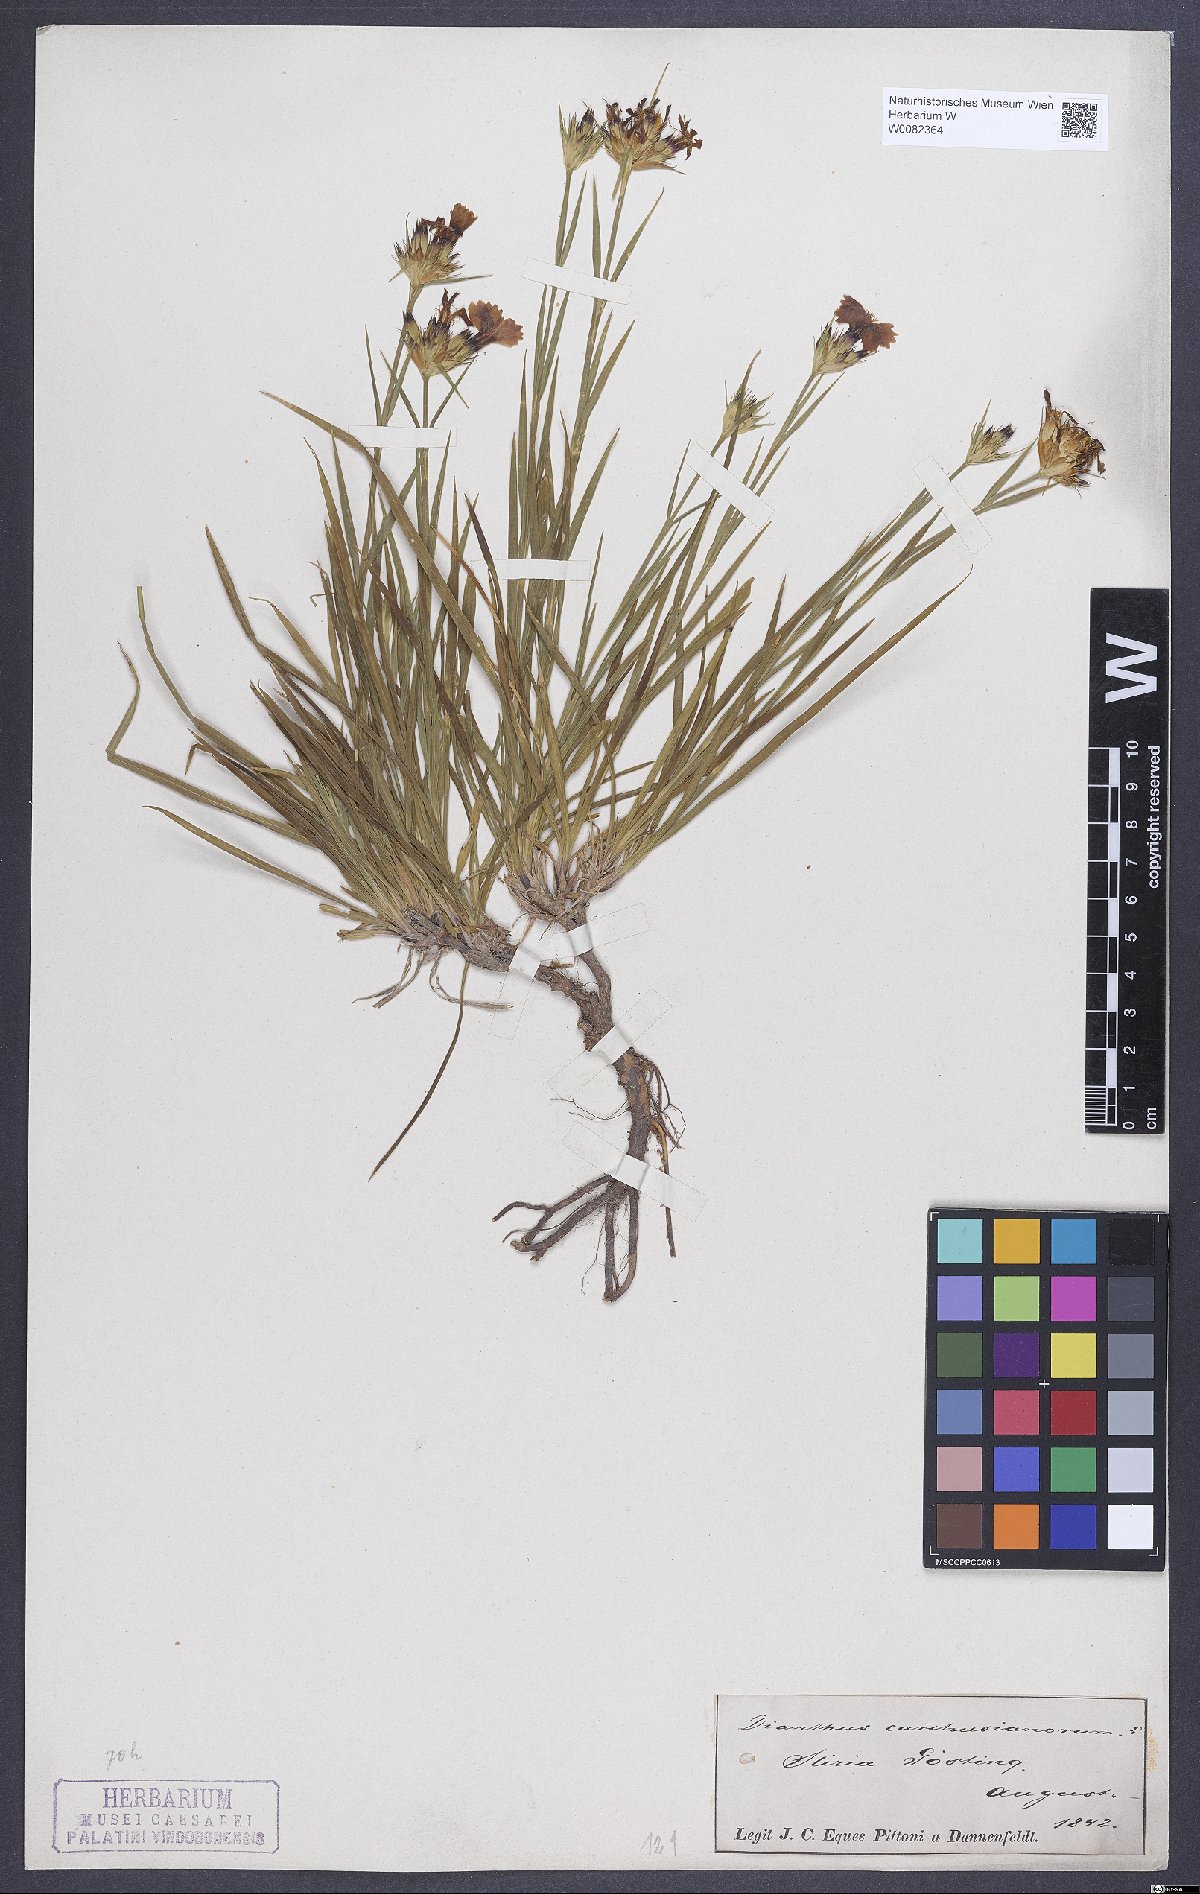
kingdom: Plantae
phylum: Tracheophyta
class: Magnoliopsida
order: Caryophyllales
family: Caryophyllaceae
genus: Dianthus
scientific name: Dianthus carthusianorum
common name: Carthusian pink
